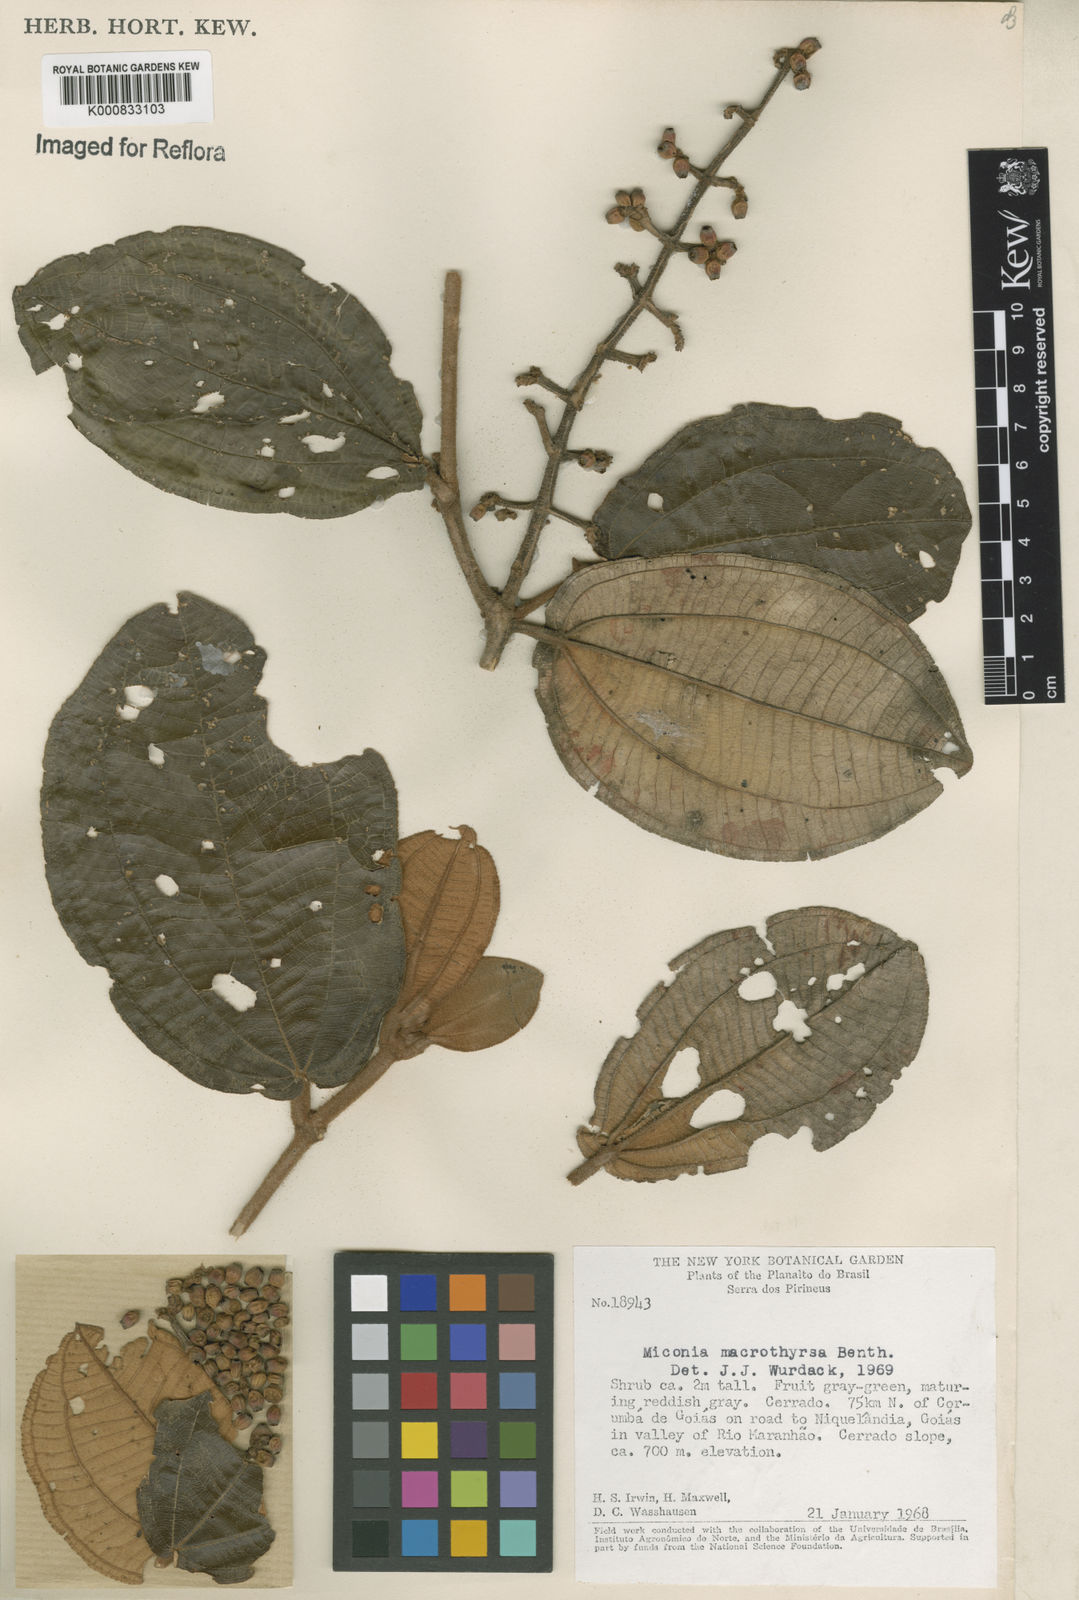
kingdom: Plantae
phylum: Tracheophyta
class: Magnoliopsida
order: Myrtales
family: Melastomataceae
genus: Miconia
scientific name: Miconia macrothyrsa
